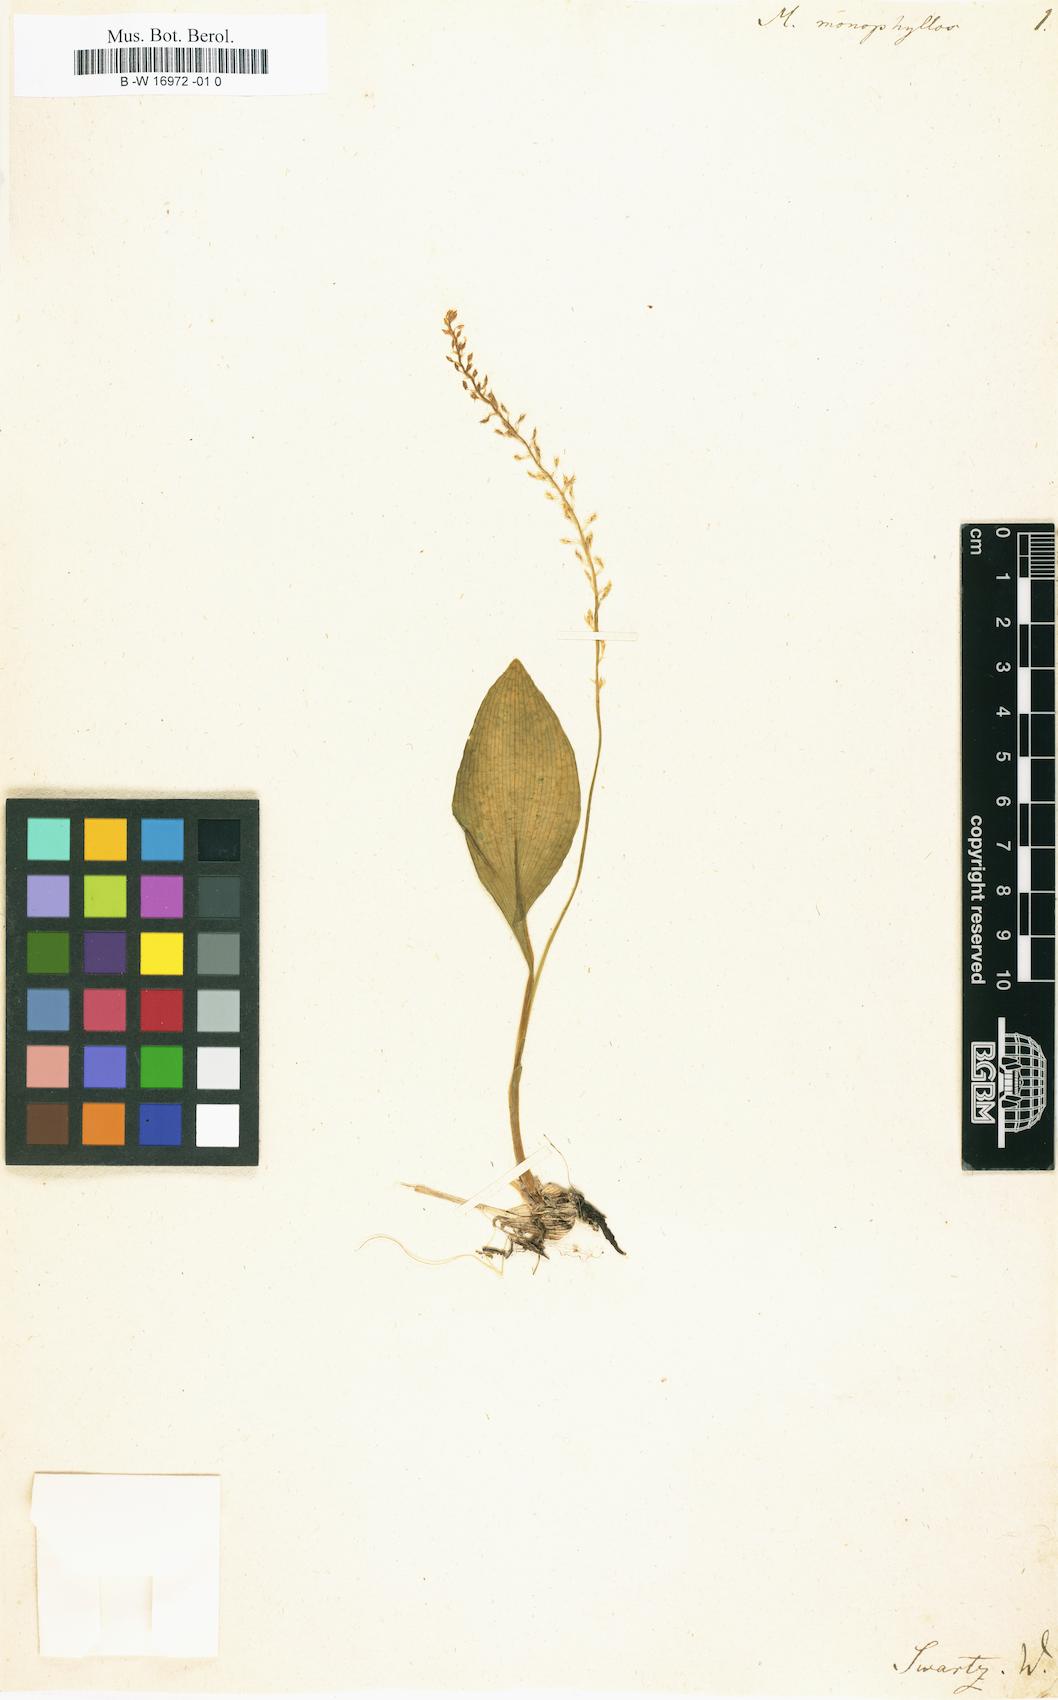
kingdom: Plantae
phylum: Tracheophyta
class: Liliopsida
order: Asparagales
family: Orchidaceae
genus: Malaxis
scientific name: Malaxis monophyllos
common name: White adder's-mouth
